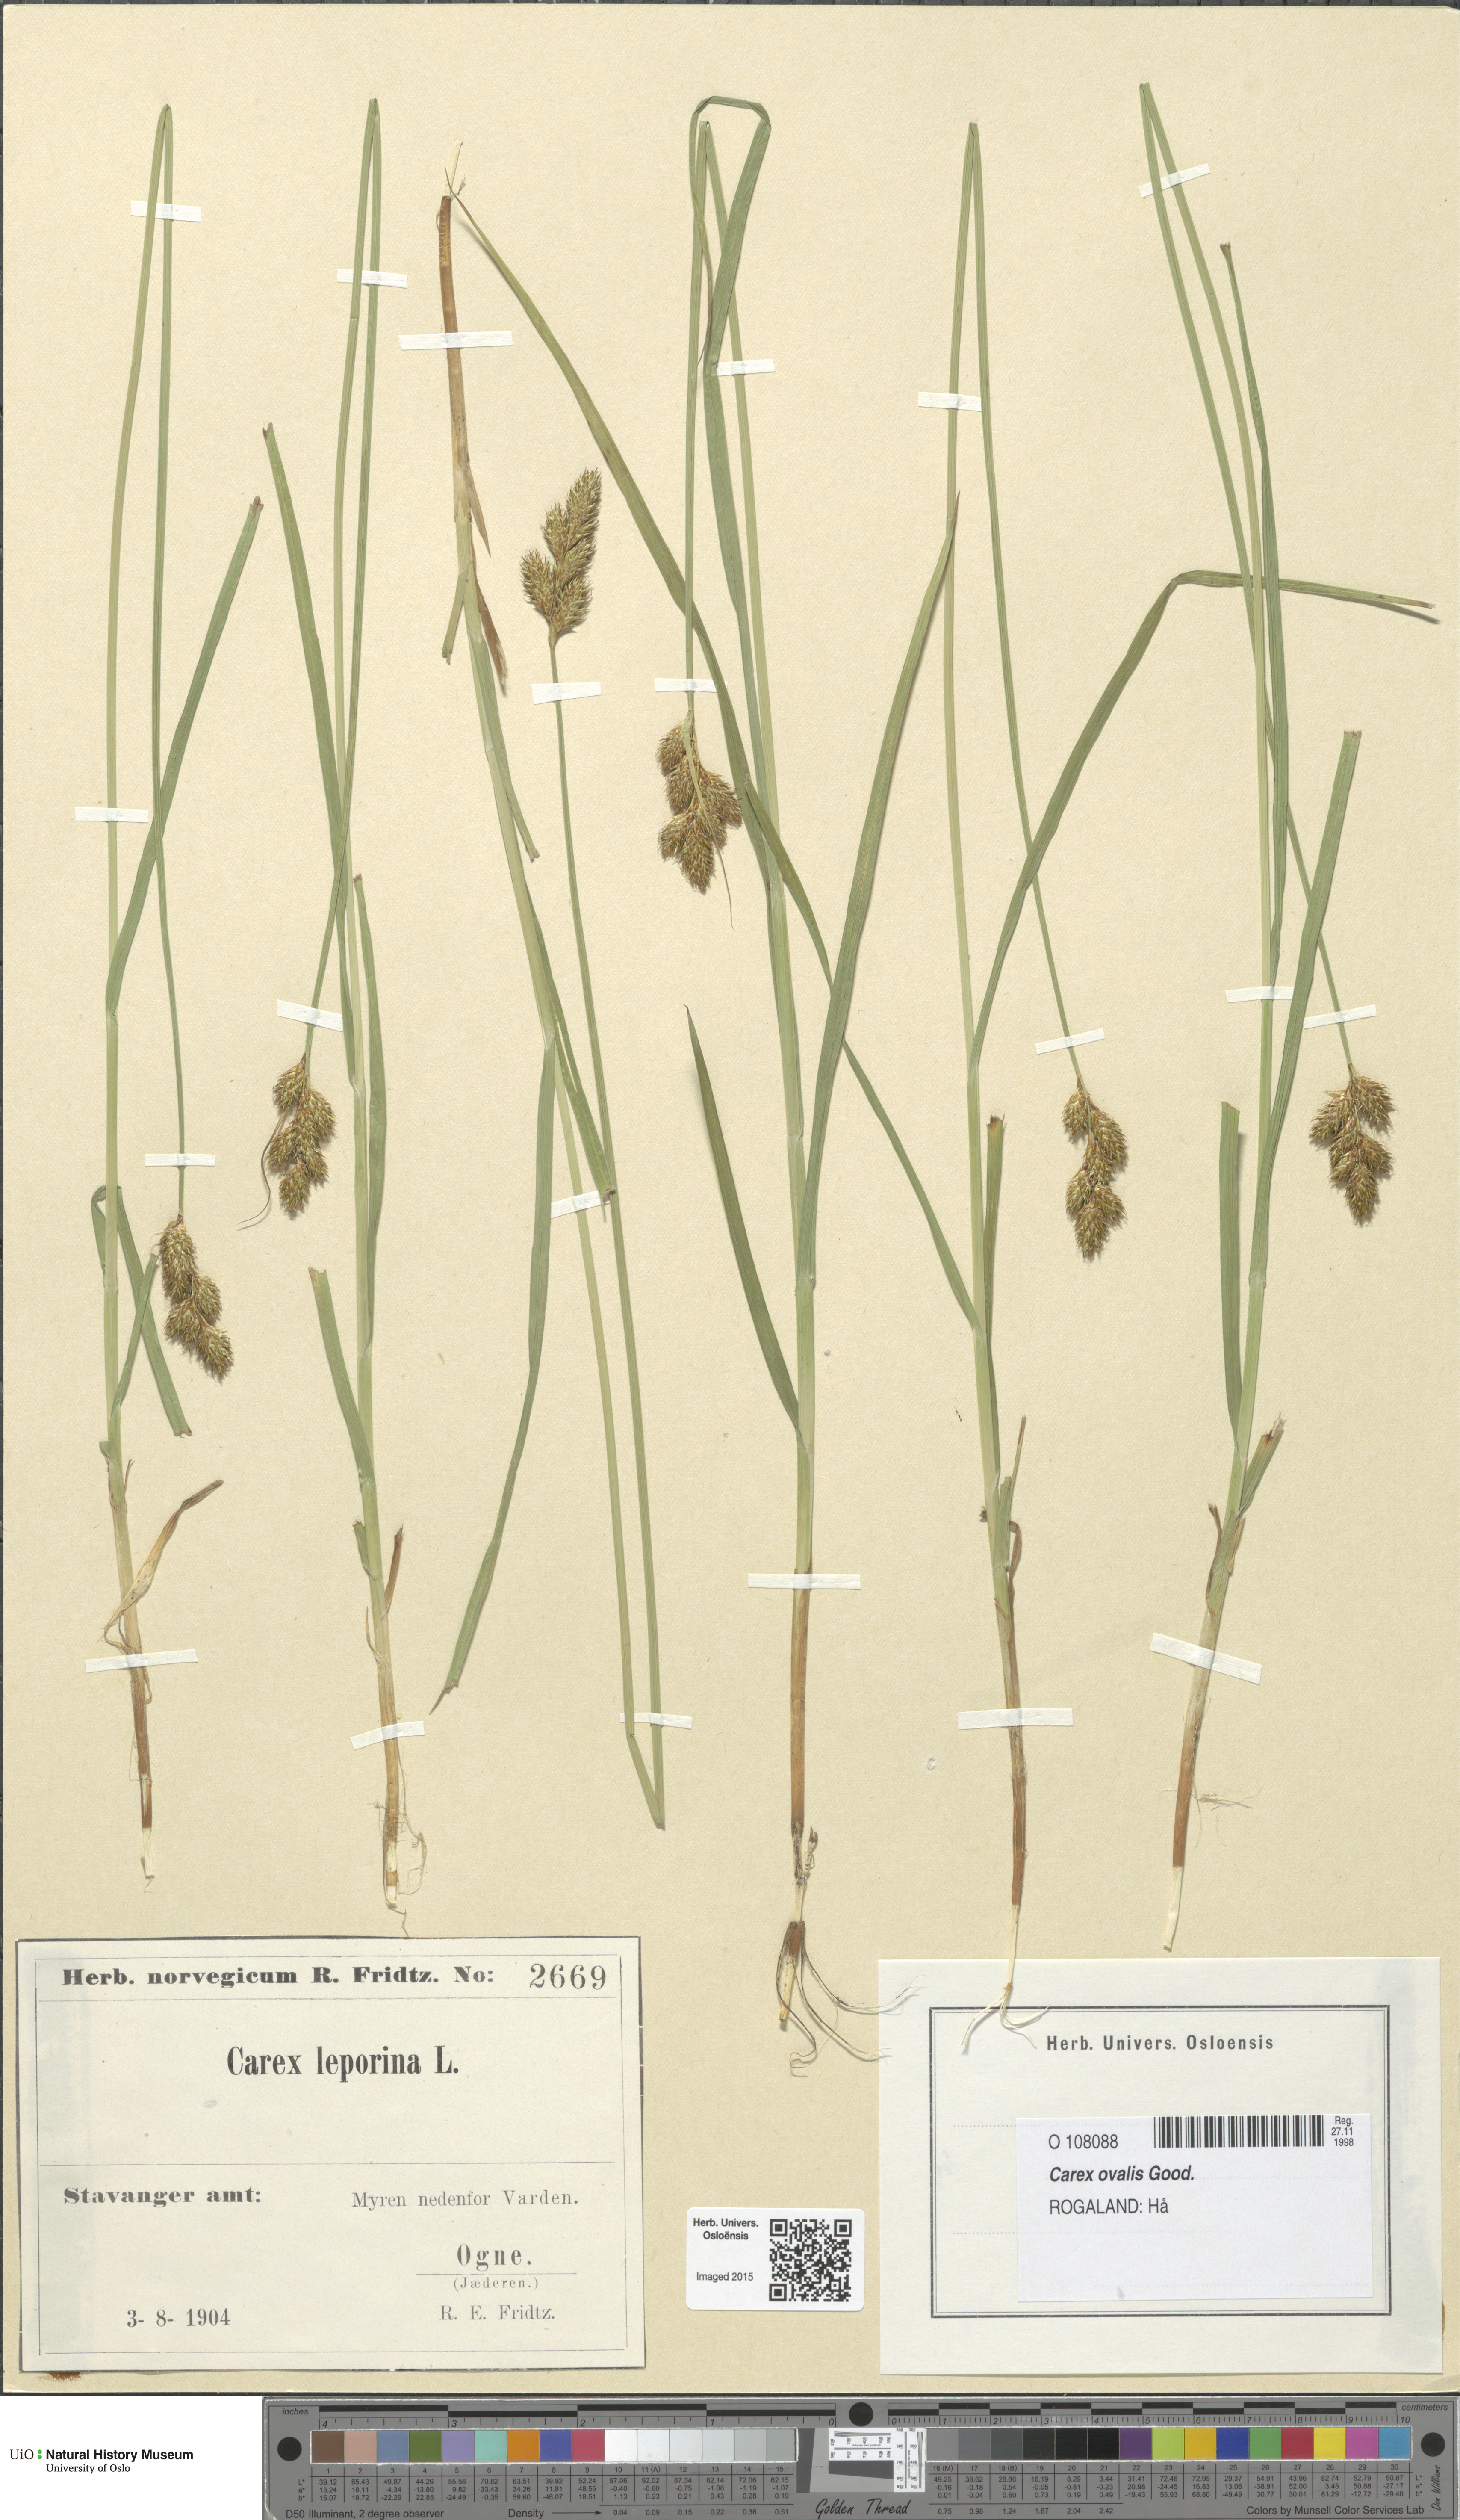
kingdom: Plantae
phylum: Tracheophyta
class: Liliopsida
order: Poales
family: Cyperaceae
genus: Carex
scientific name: Carex leporina
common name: Oval sedge
